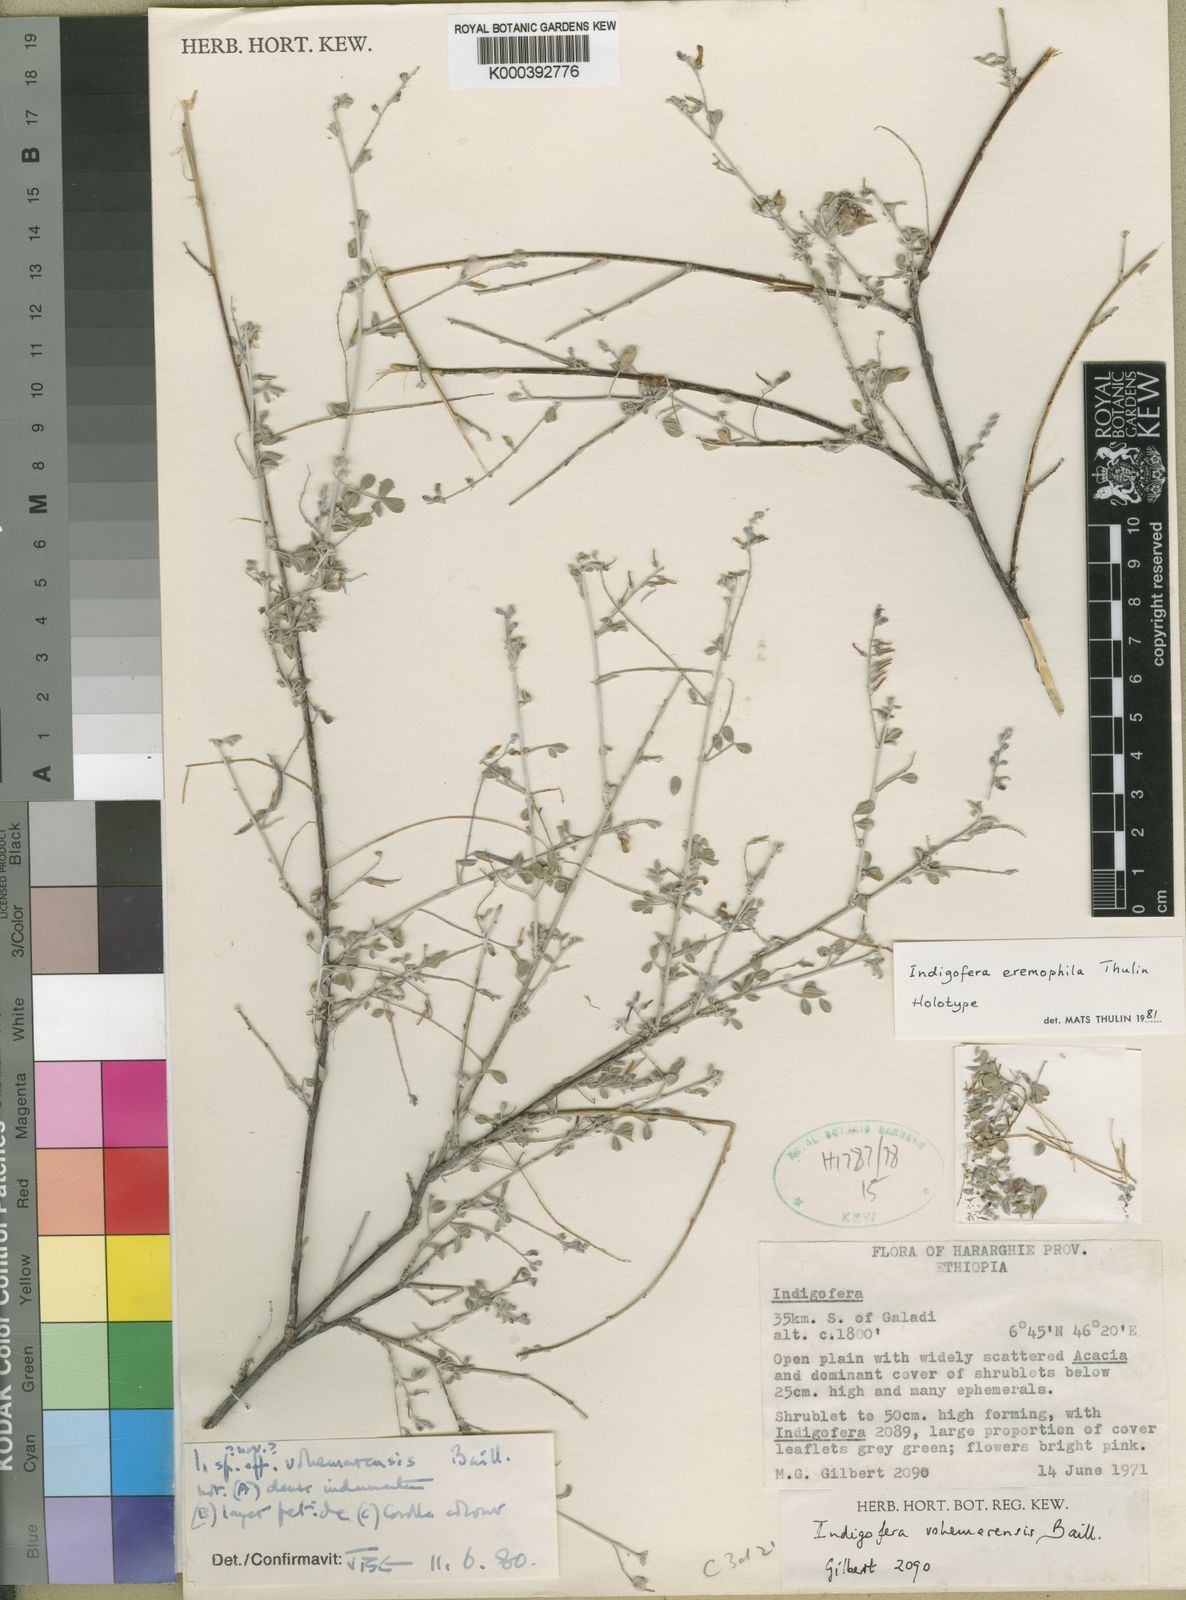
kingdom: Plantae
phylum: Tracheophyta
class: Magnoliopsida
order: Fabales
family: Fabaceae
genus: Indigofera
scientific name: Indigofera eremophila
